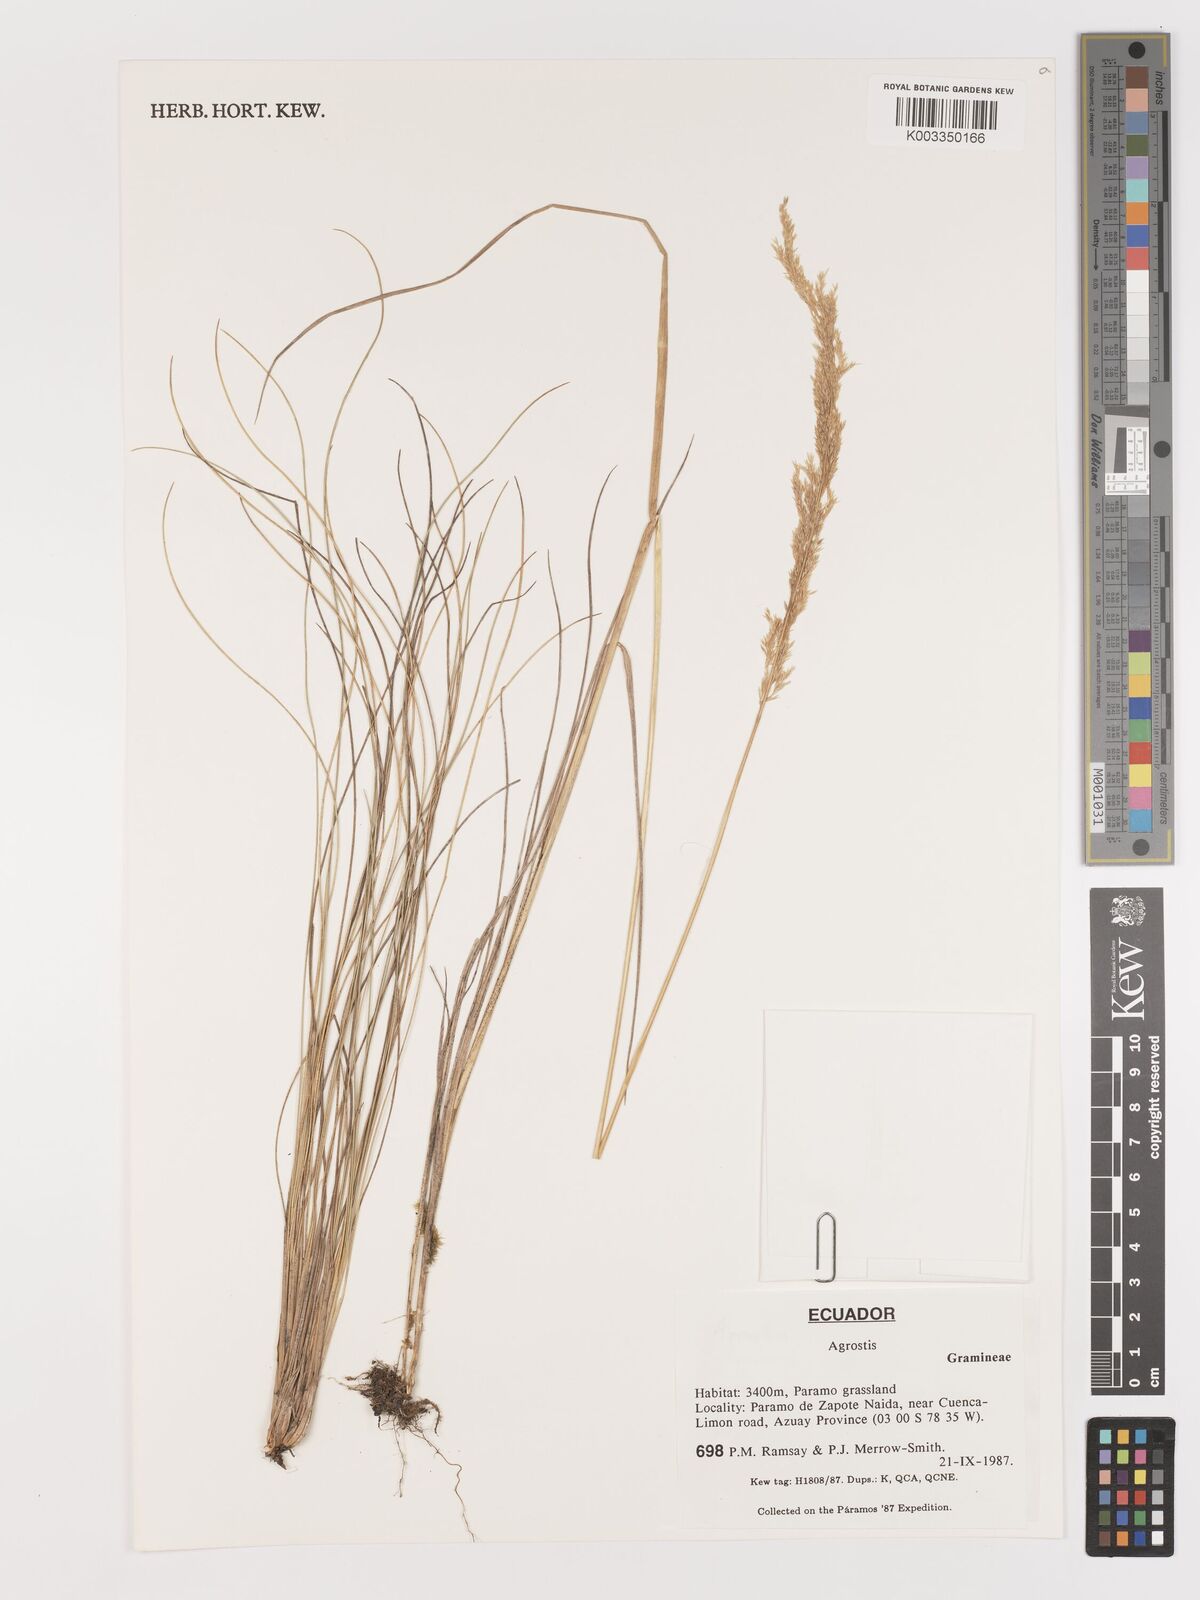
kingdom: Plantae
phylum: Tracheophyta
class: Liliopsida
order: Poales
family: Poaceae
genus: Agrostis
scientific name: Agrostis
